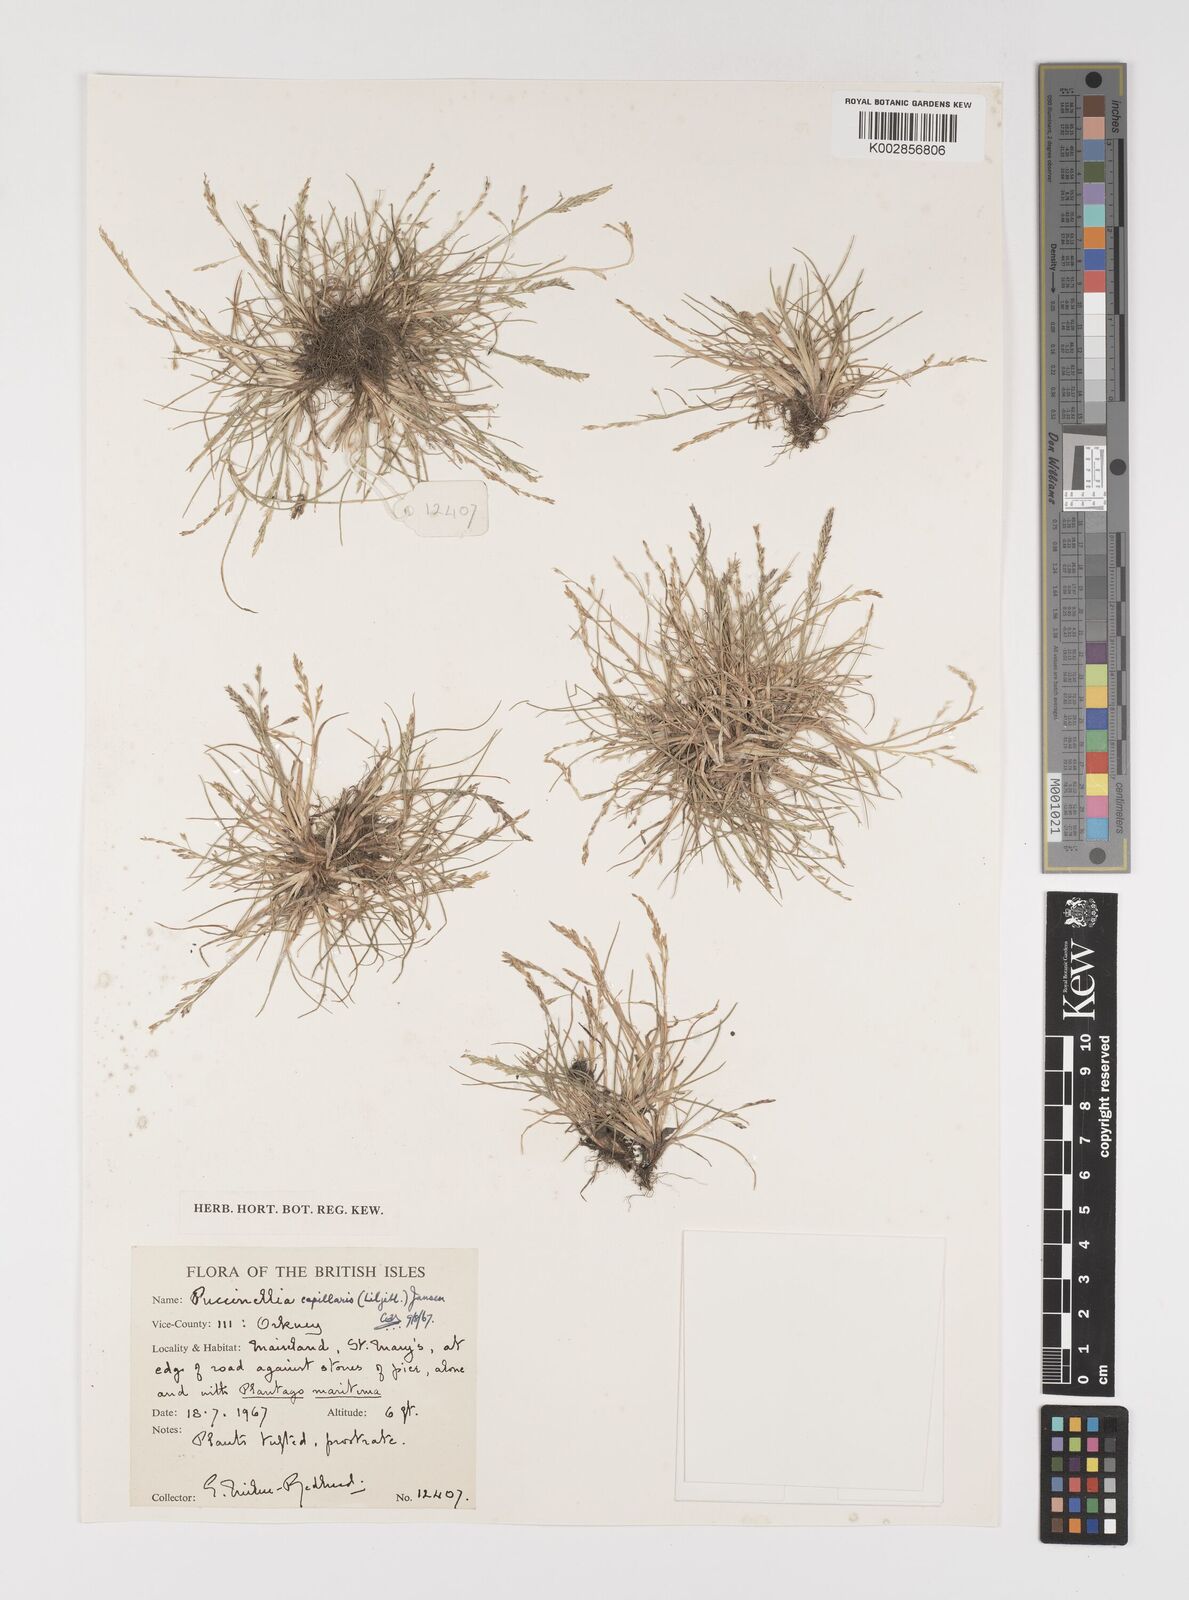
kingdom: Plantae
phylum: Tracheophyta
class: Liliopsida
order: Poales
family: Poaceae
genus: Puccinellia
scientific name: Puccinellia distans
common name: Weeping alkaligrass
